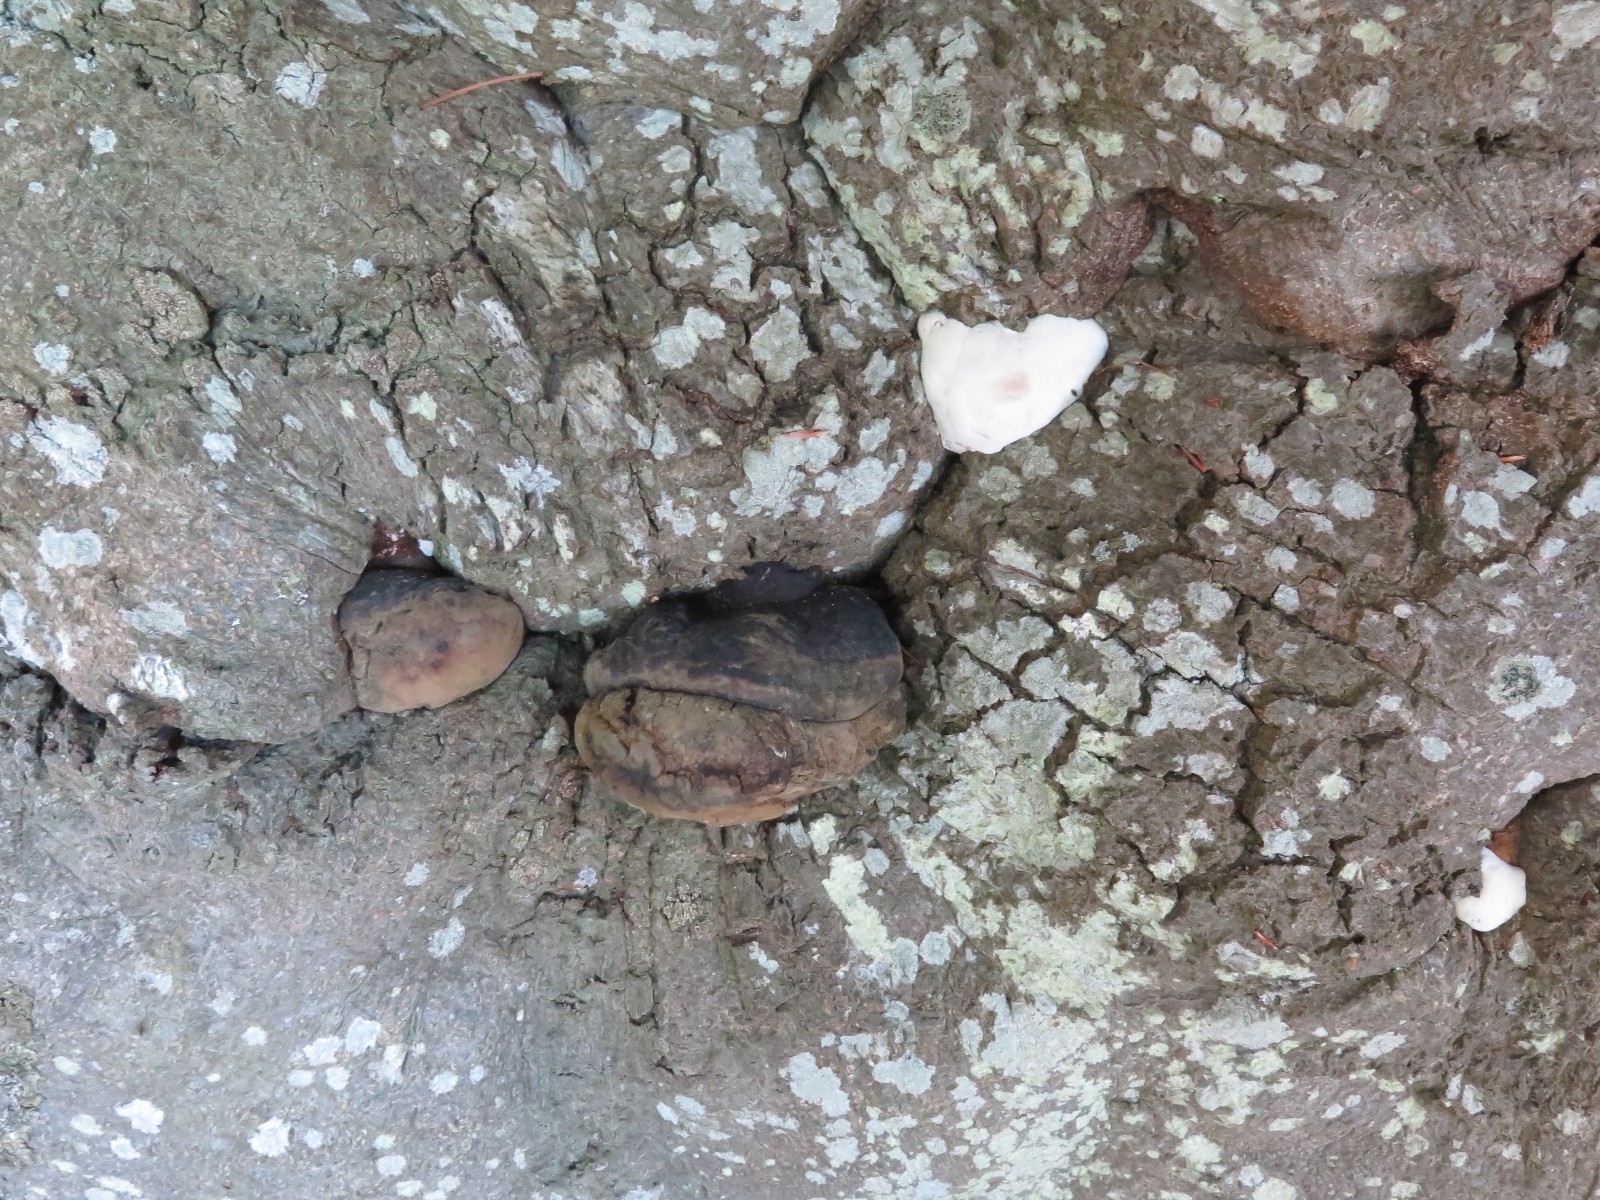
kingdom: Fungi
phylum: Basidiomycota
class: Agaricomycetes
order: Polyporales
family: Polyporaceae
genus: Ganoderma
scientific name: Ganoderma pfeifferi
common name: kobberrød lakporesvamp
